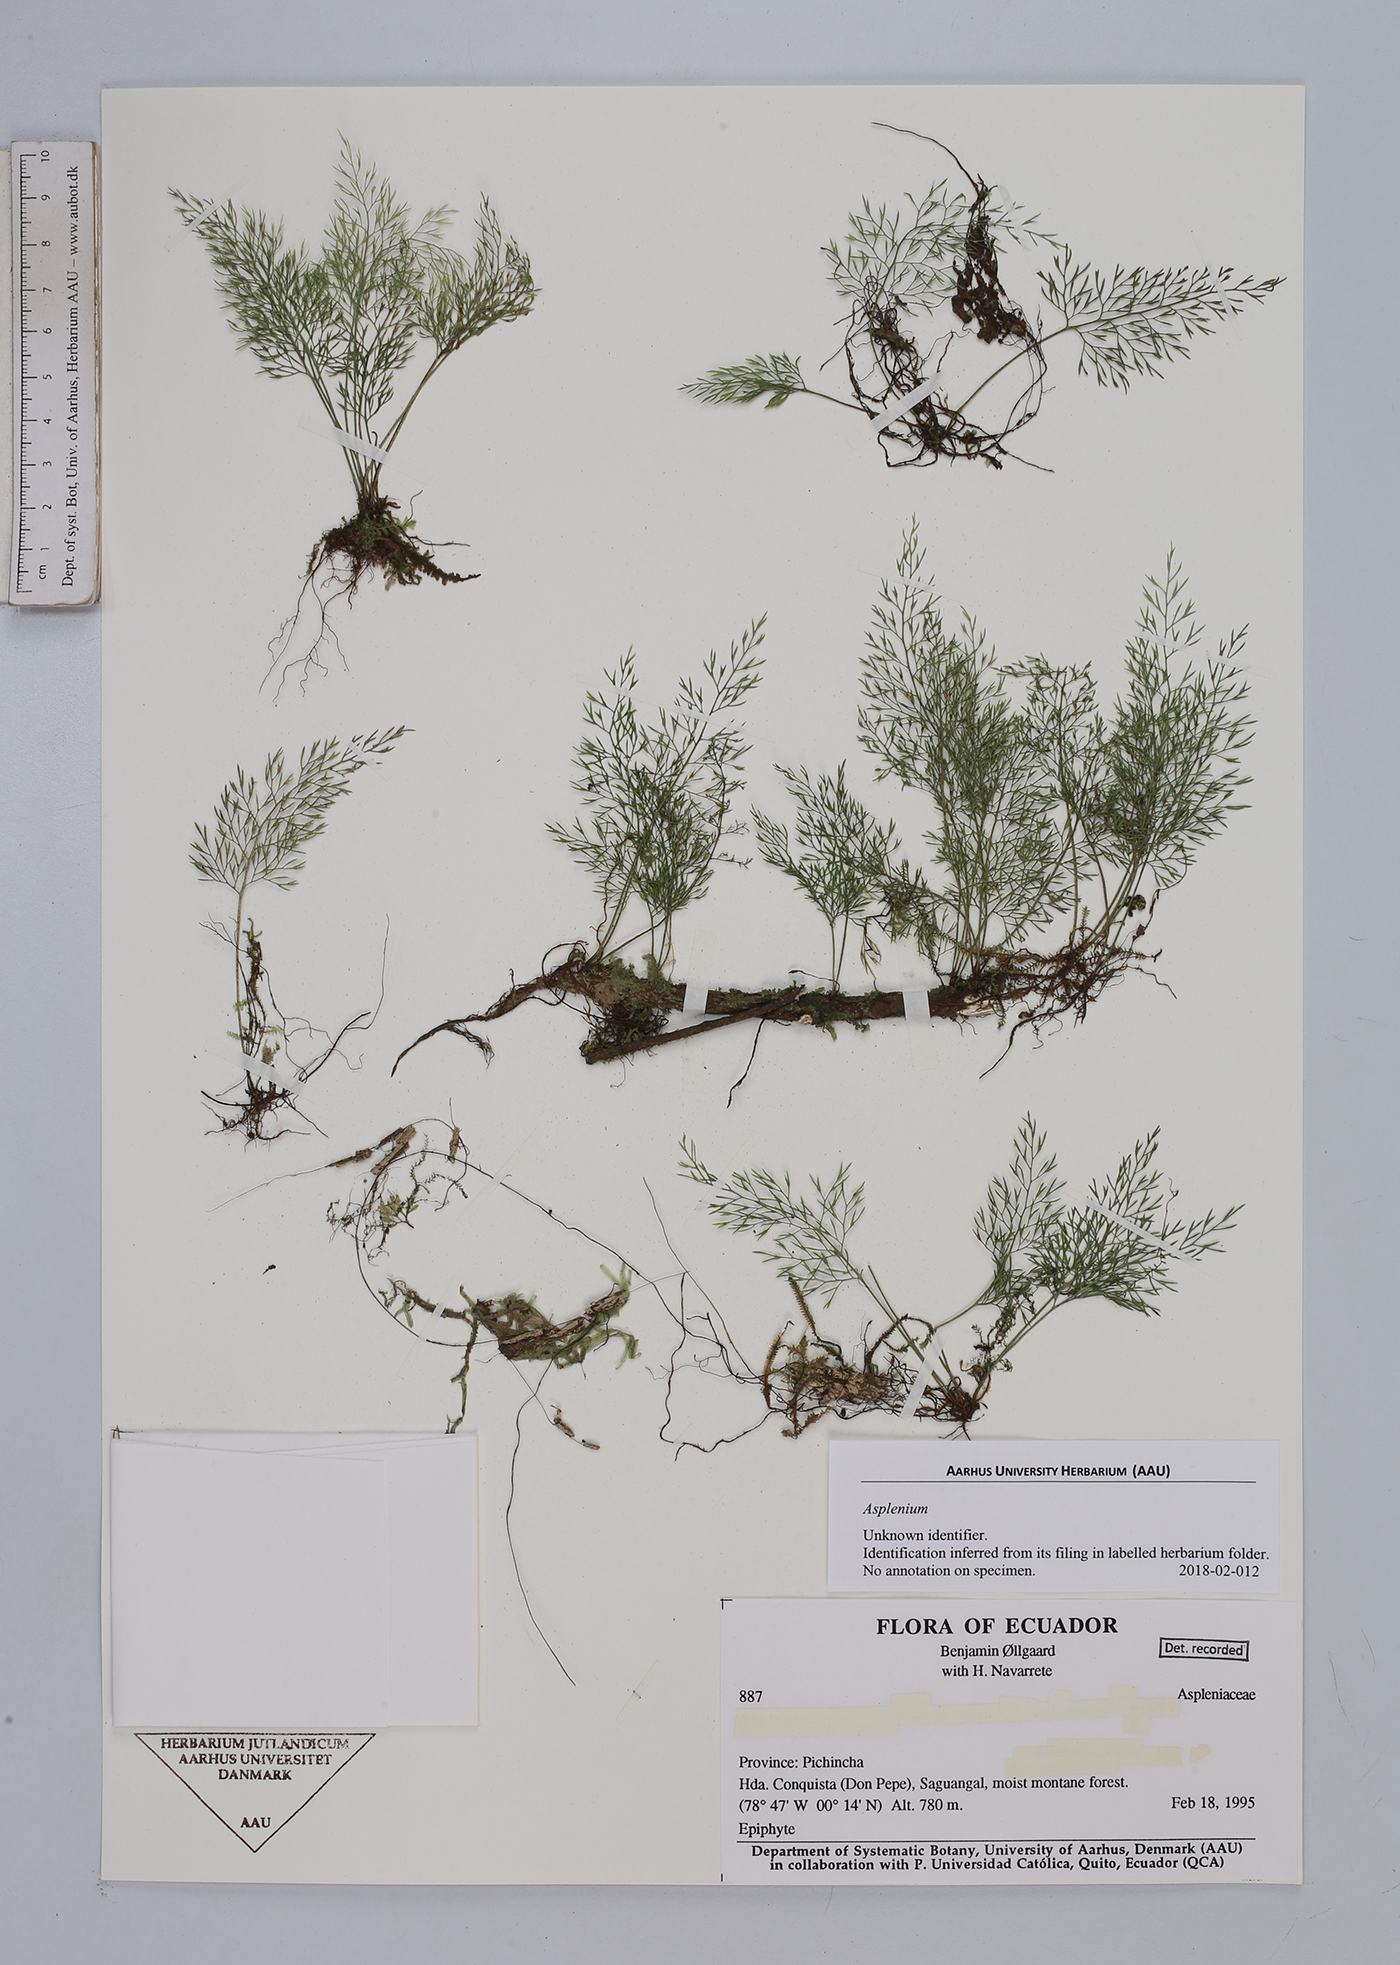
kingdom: Plantae
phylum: Tracheophyta
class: Polypodiopsida
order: Polypodiales
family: Aspleniaceae
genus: Asplenium
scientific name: Asplenium
